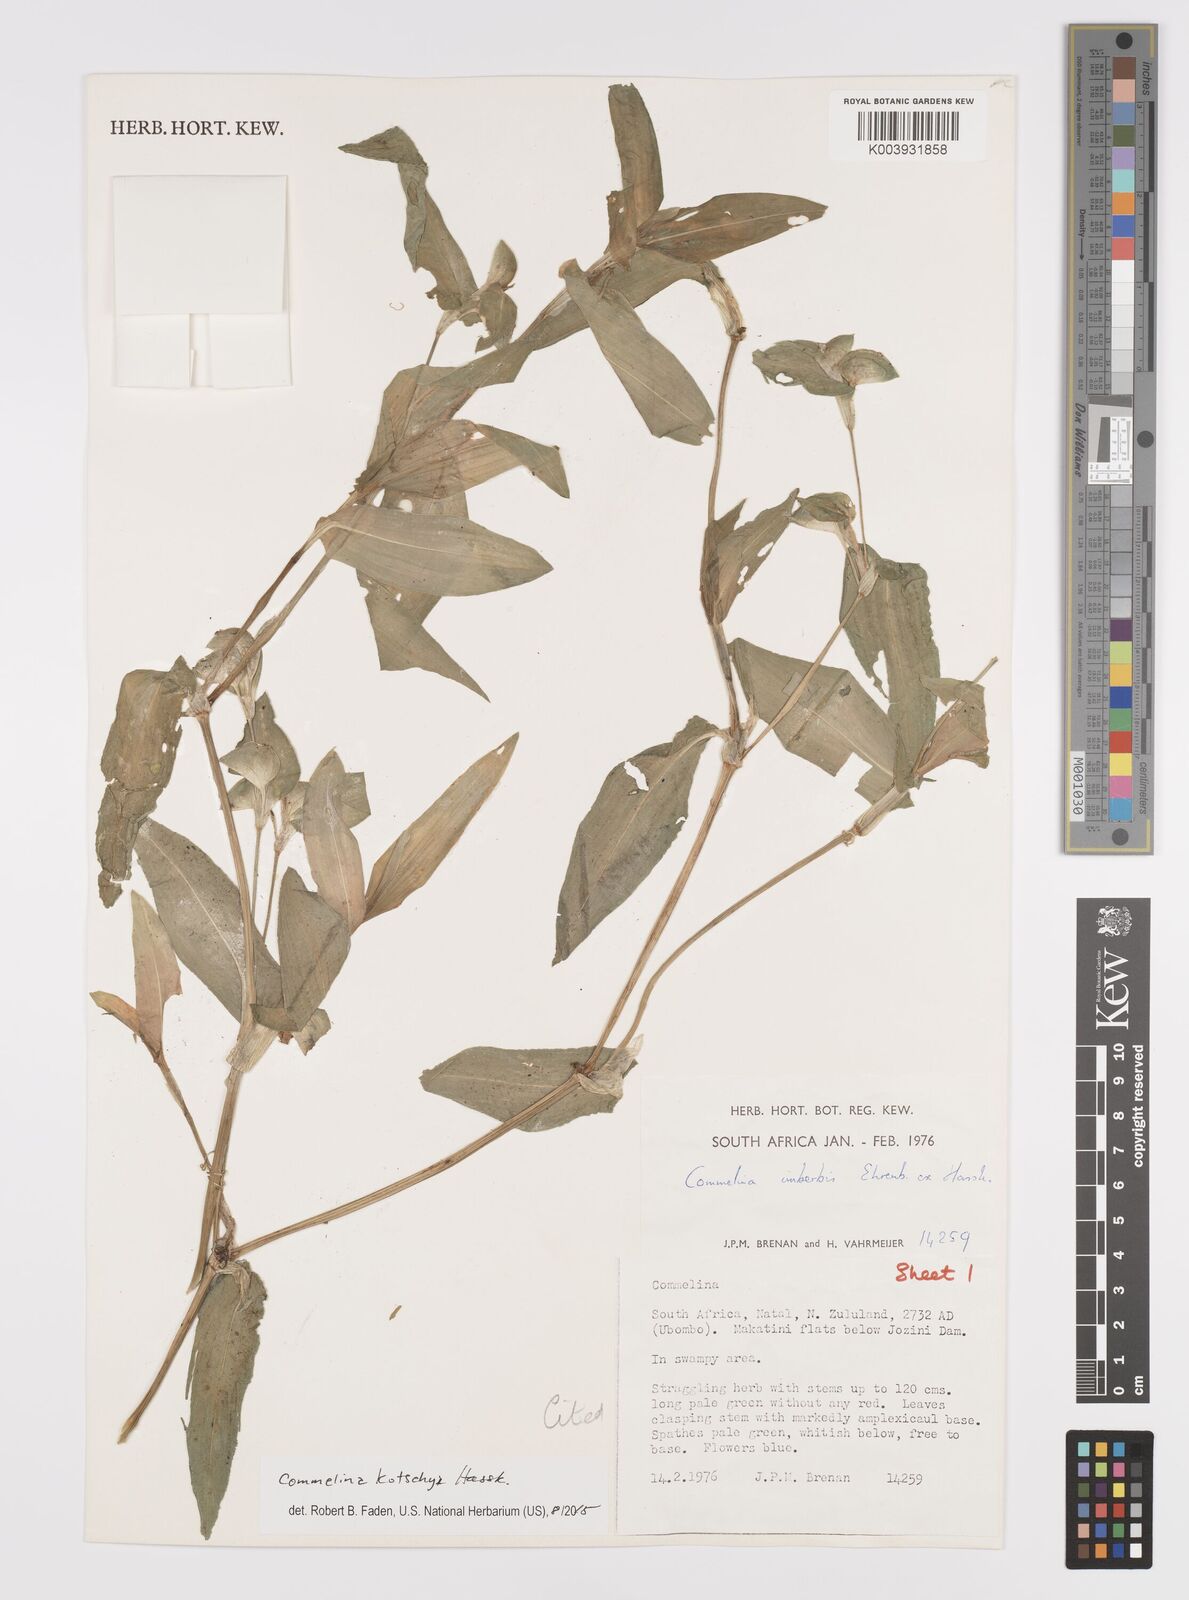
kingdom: Plantae
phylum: Tracheophyta
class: Liliopsida
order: Commelinales
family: Commelinaceae
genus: Commelina
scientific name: Commelina imberbis
